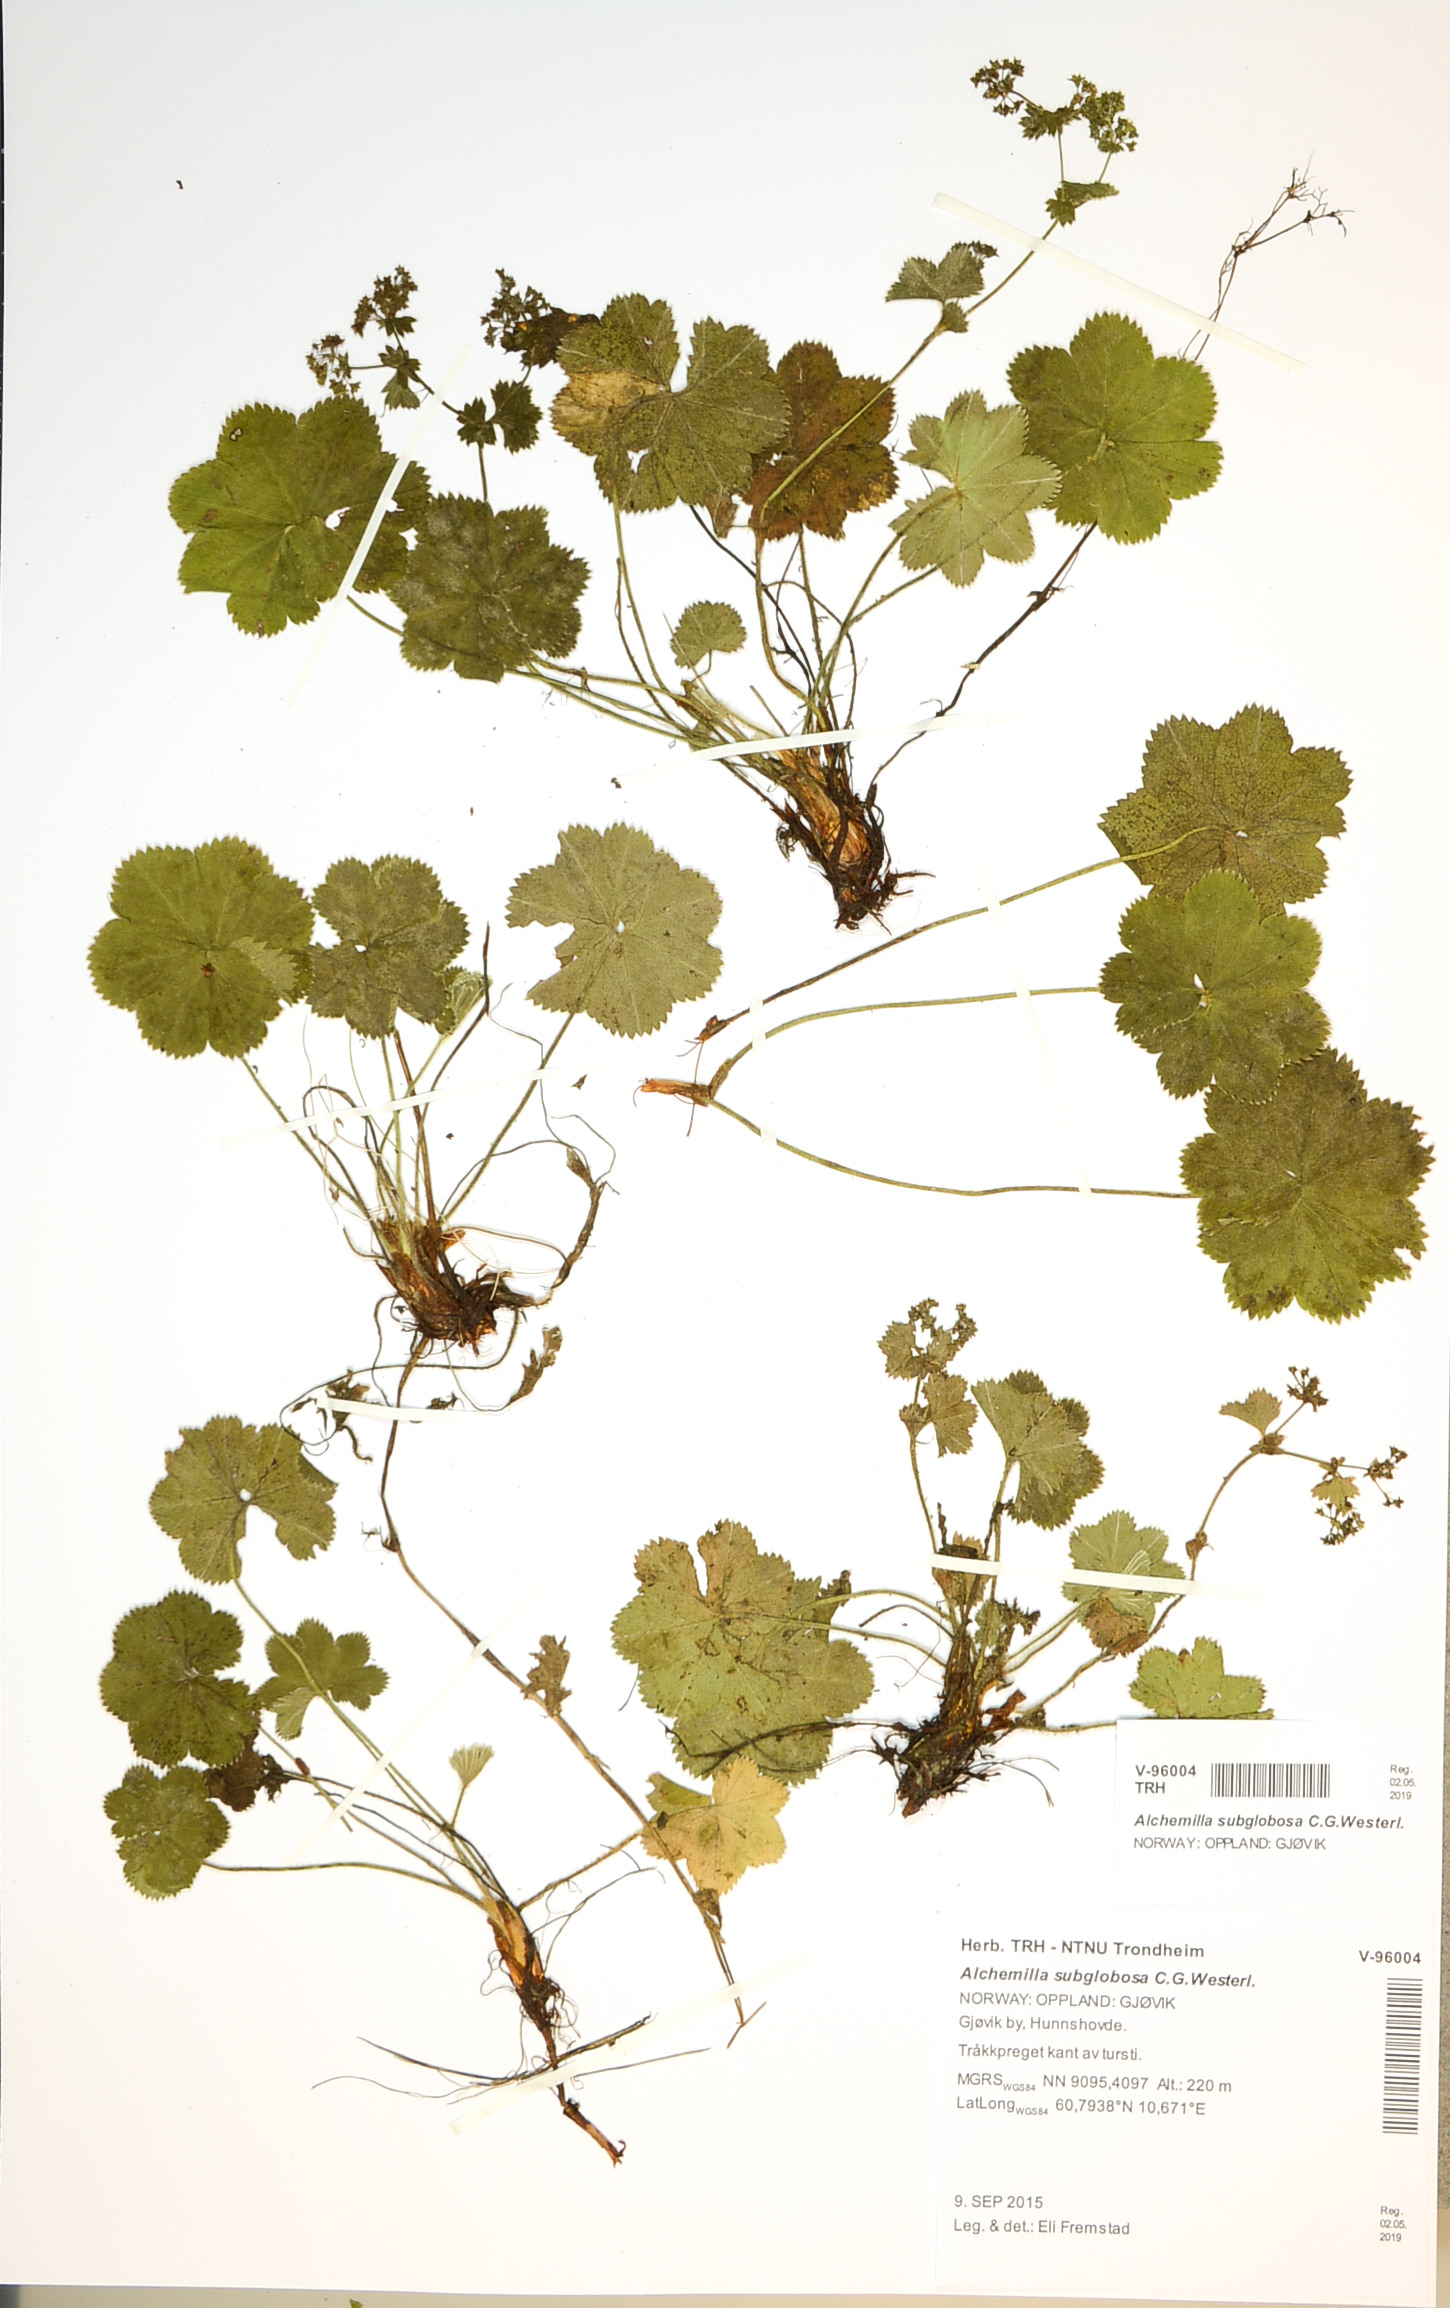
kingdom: Plantae
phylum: Tracheophyta
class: Magnoliopsida
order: Rosales
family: Rosaceae
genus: Alchemilla
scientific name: Alchemilla subglobosa
